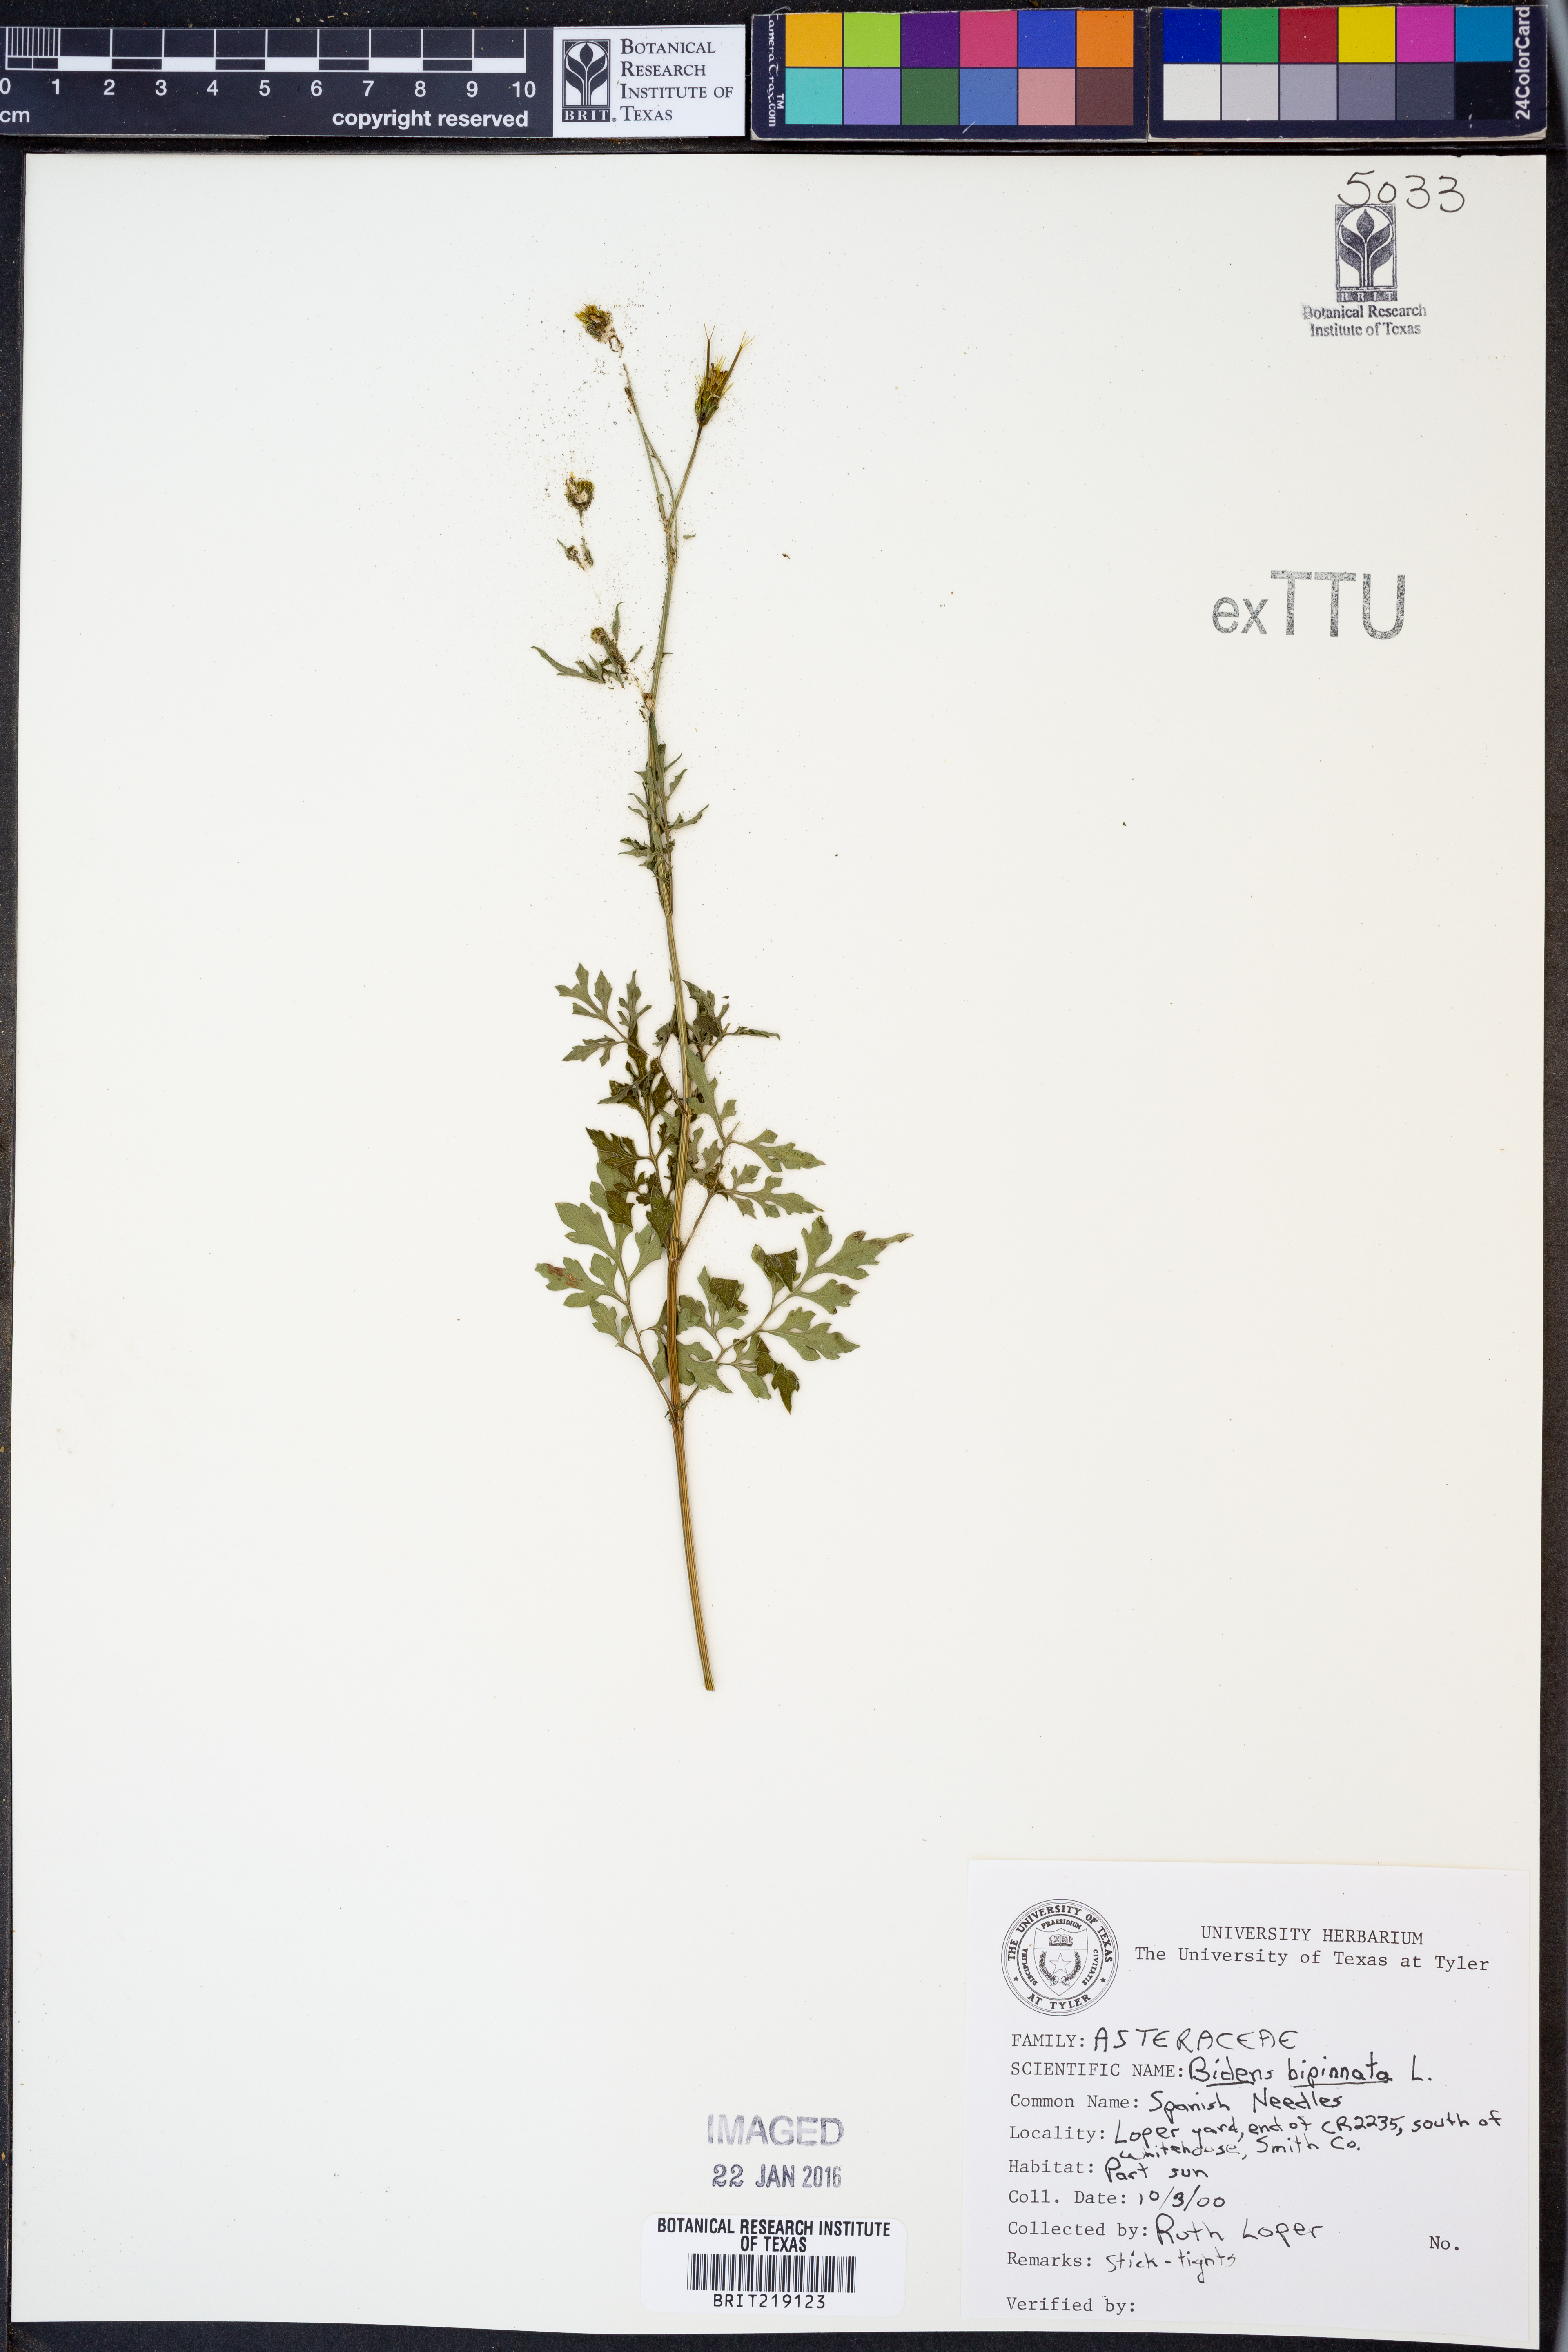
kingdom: Plantae
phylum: Tracheophyta
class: Magnoliopsida
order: Asterales
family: Asteraceae
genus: Bidens
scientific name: Bidens bipinnata
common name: Spanish-needles
